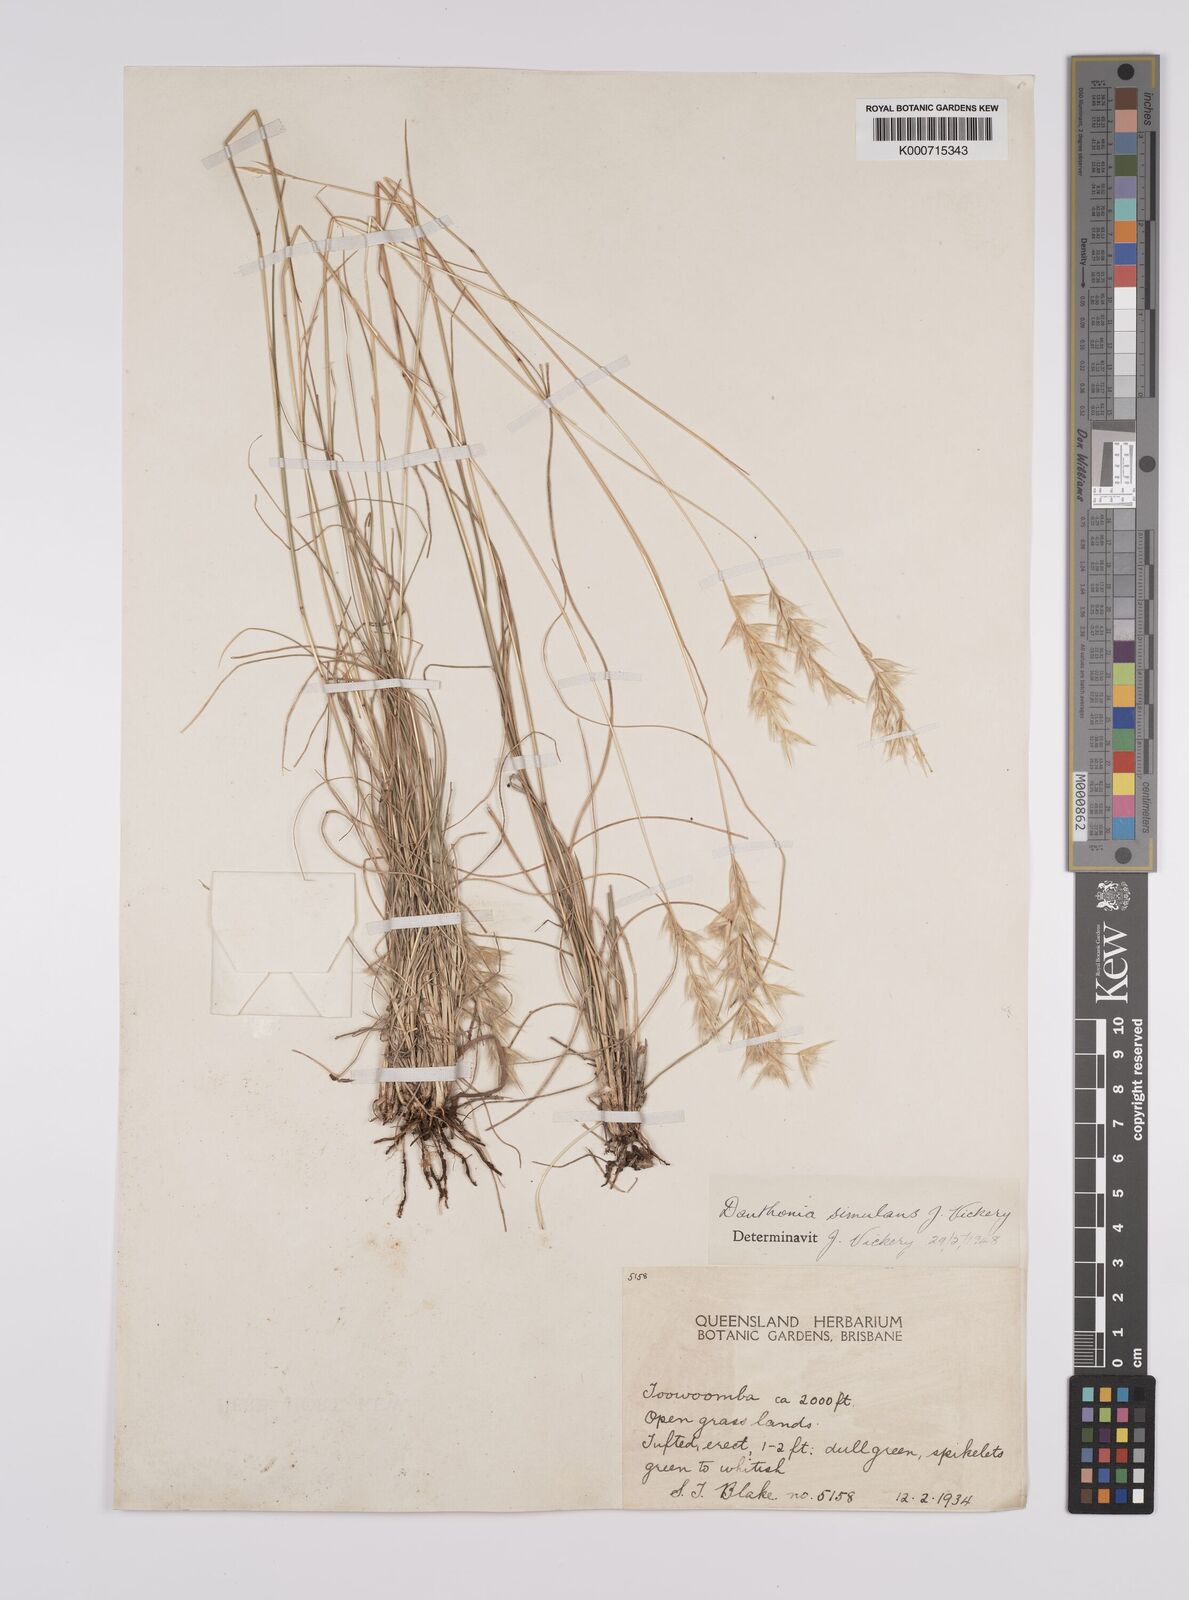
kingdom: Plantae
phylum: Tracheophyta
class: Liliopsida
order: Poales
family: Poaceae
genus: Rytidosperma
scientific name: Rytidosperma bipartitum
